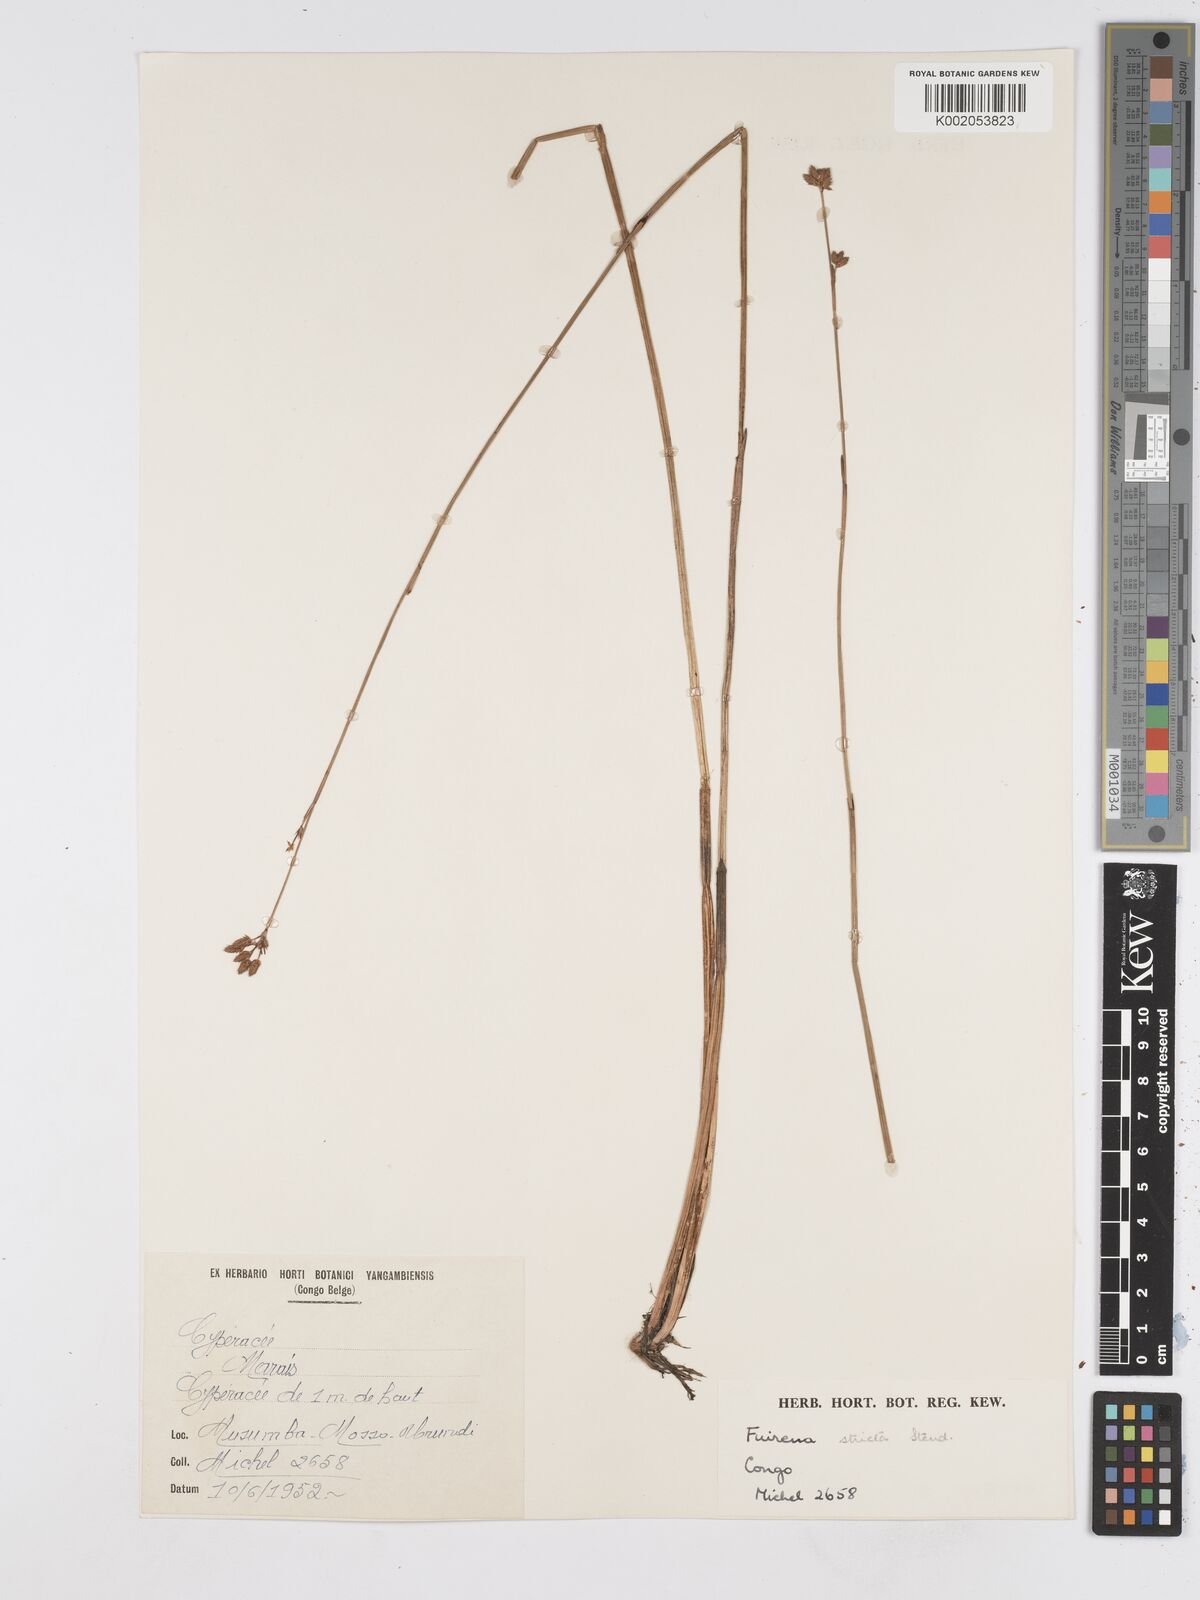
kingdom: Plantae
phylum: Tracheophyta
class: Liliopsida
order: Poales
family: Cyperaceae
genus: Fuirena
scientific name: Fuirena stricta
